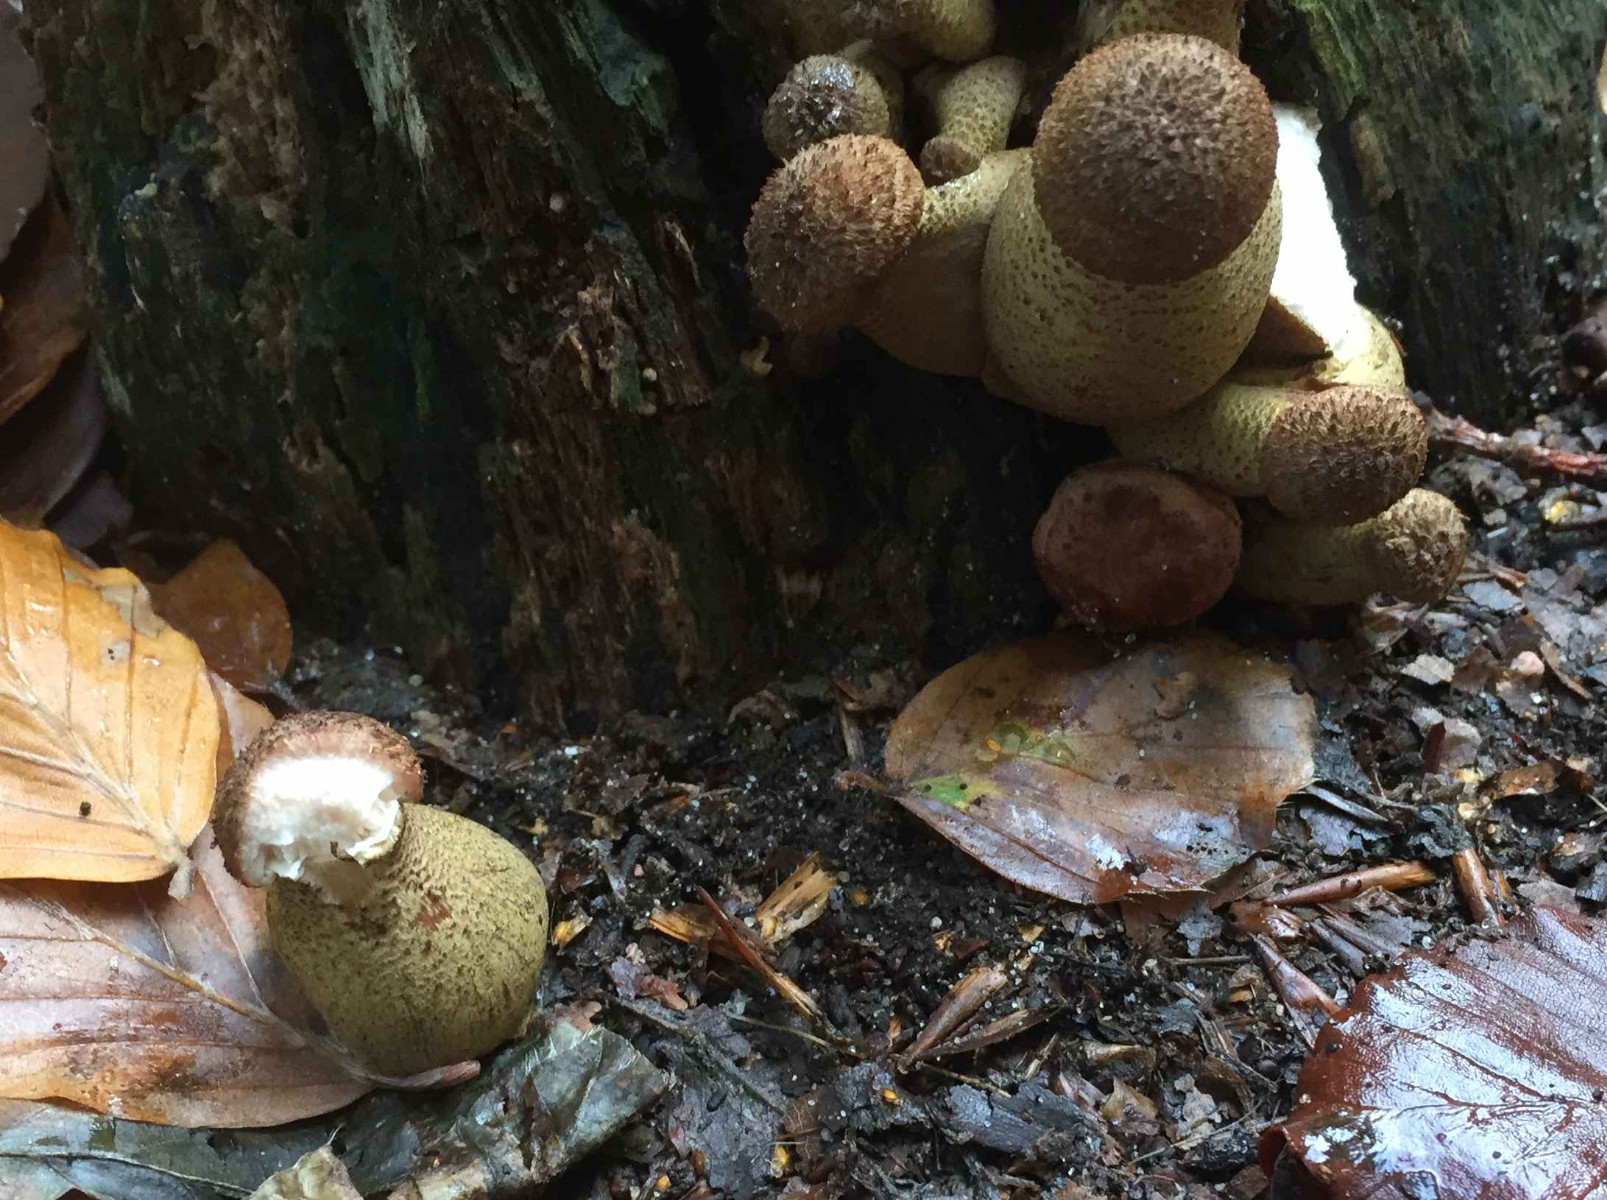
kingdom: Fungi
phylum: Basidiomycota
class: Agaricomycetes
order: Agaricales
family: Physalacriaceae
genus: Armillaria
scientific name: Armillaria lutea
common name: køllestokket honningsvamp
